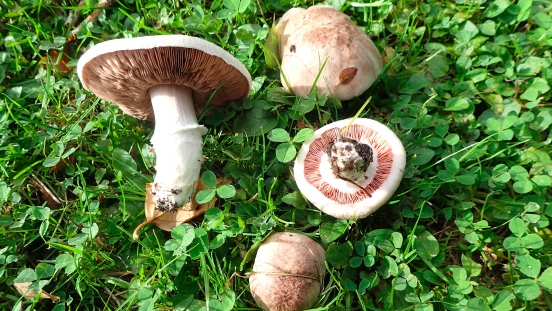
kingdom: Fungi
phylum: Basidiomycota
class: Agaricomycetes
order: Agaricales
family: Agaricaceae
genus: Agaricus
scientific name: Agaricus
